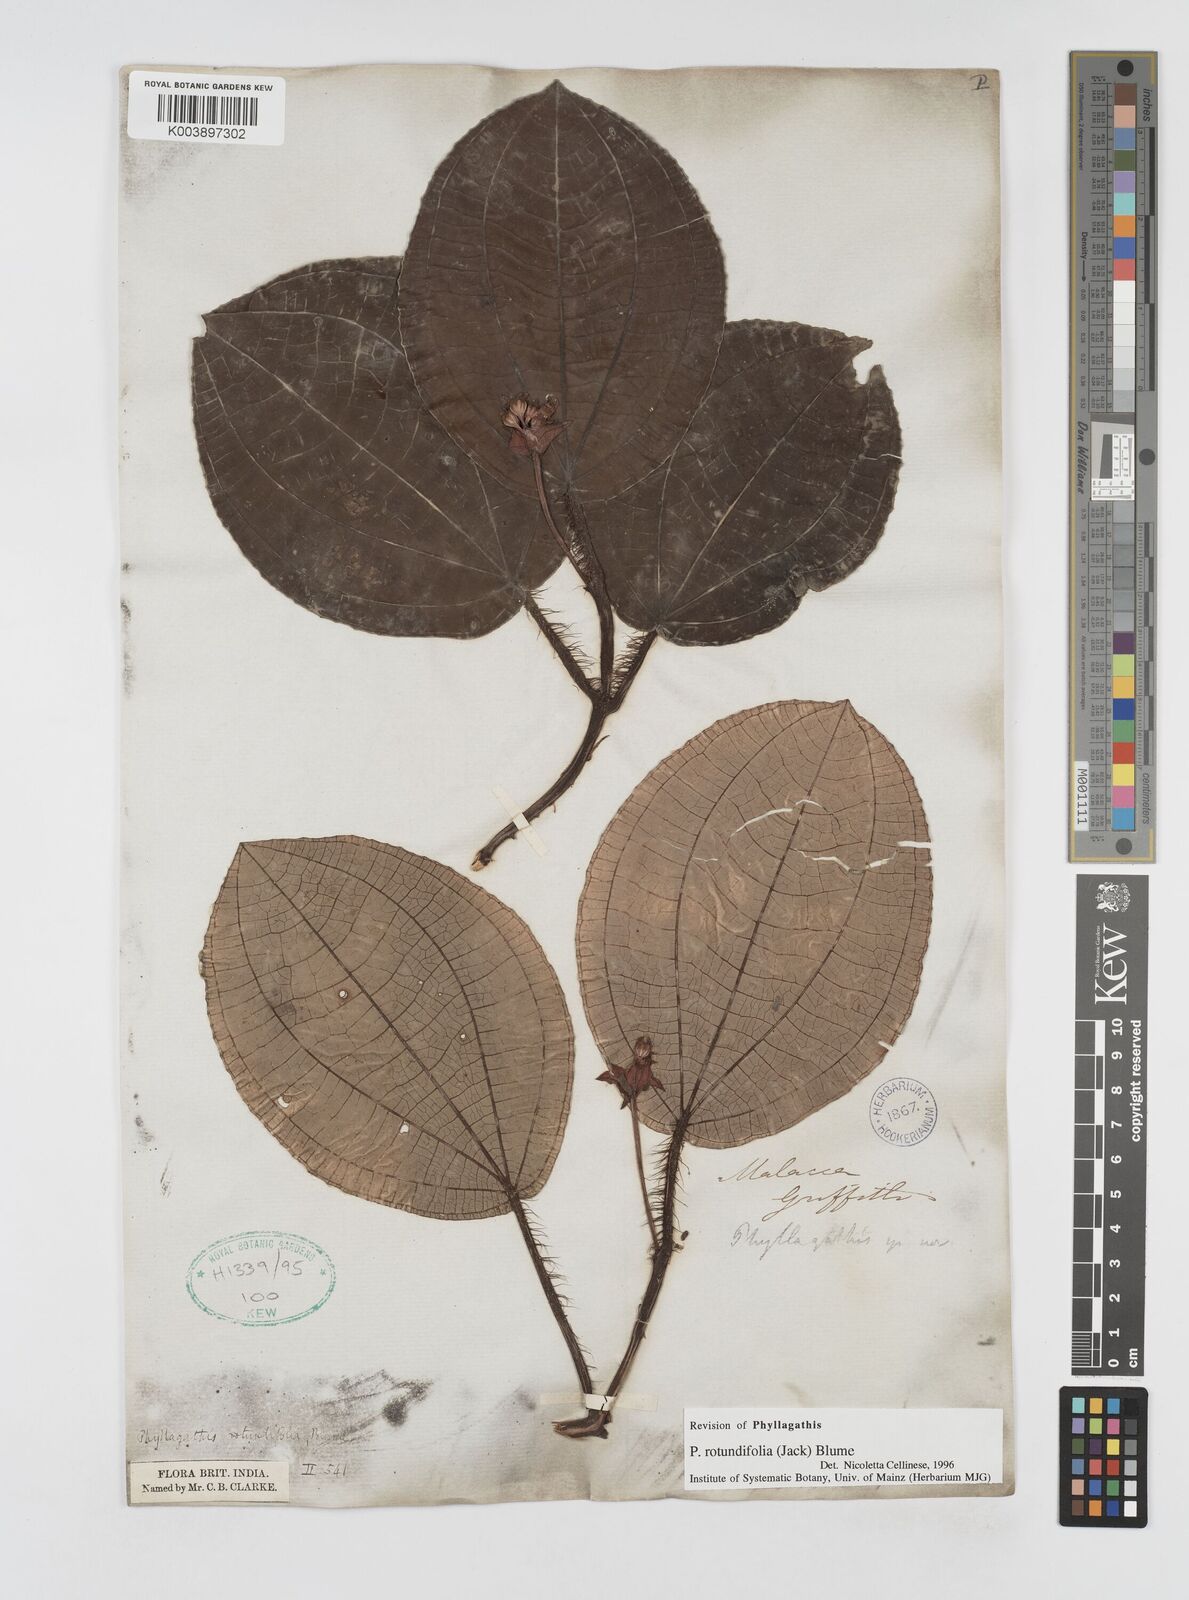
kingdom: Plantae
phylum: Tracheophyta
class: Magnoliopsida
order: Myrtales
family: Melastomataceae
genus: Phyllagathis
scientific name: Phyllagathis rotundifolia
